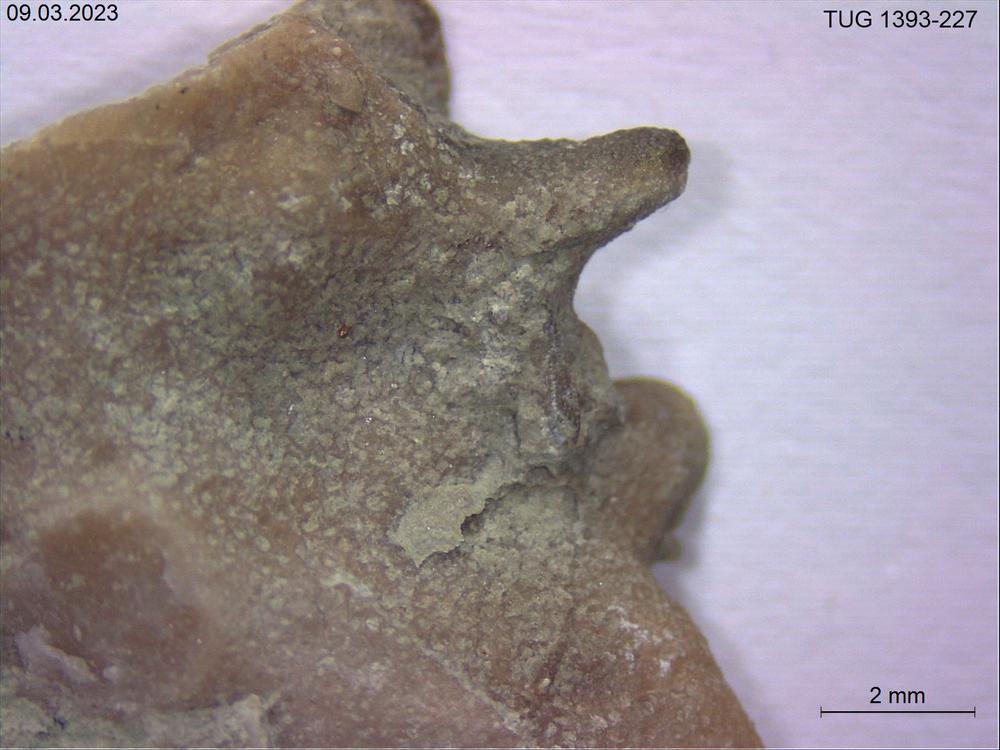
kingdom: Animalia
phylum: Bryozoa
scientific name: Bryozoa
